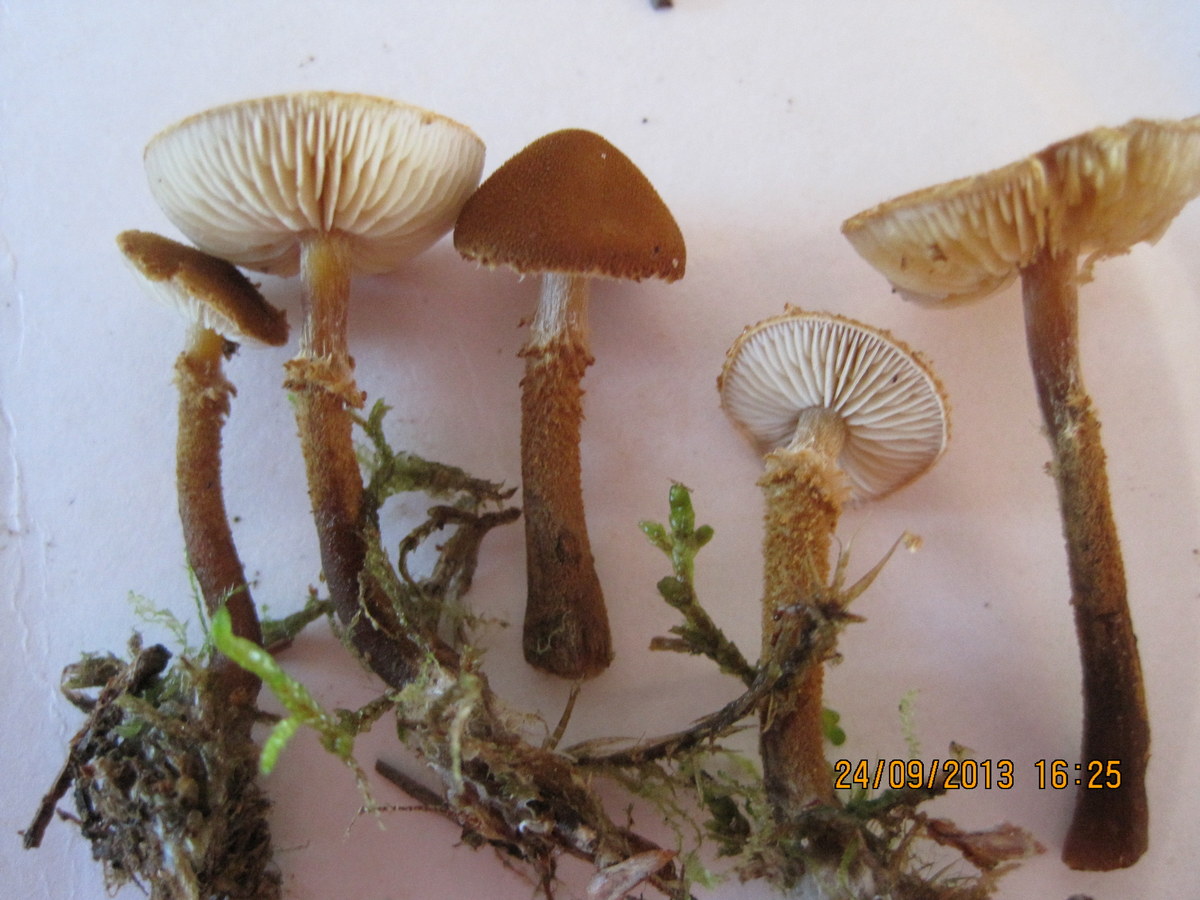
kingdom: Fungi
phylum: Basidiomycota
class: Agaricomycetes
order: Agaricales
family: Tricholomataceae
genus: Cystoderma
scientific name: Cystoderma jasonis
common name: gulkødet grynhat
